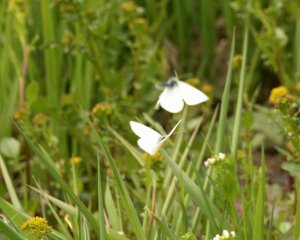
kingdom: Animalia
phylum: Arthropoda
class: Insecta
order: Lepidoptera
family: Pieridae
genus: Pieris
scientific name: Pieris rapae
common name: Cabbage White
